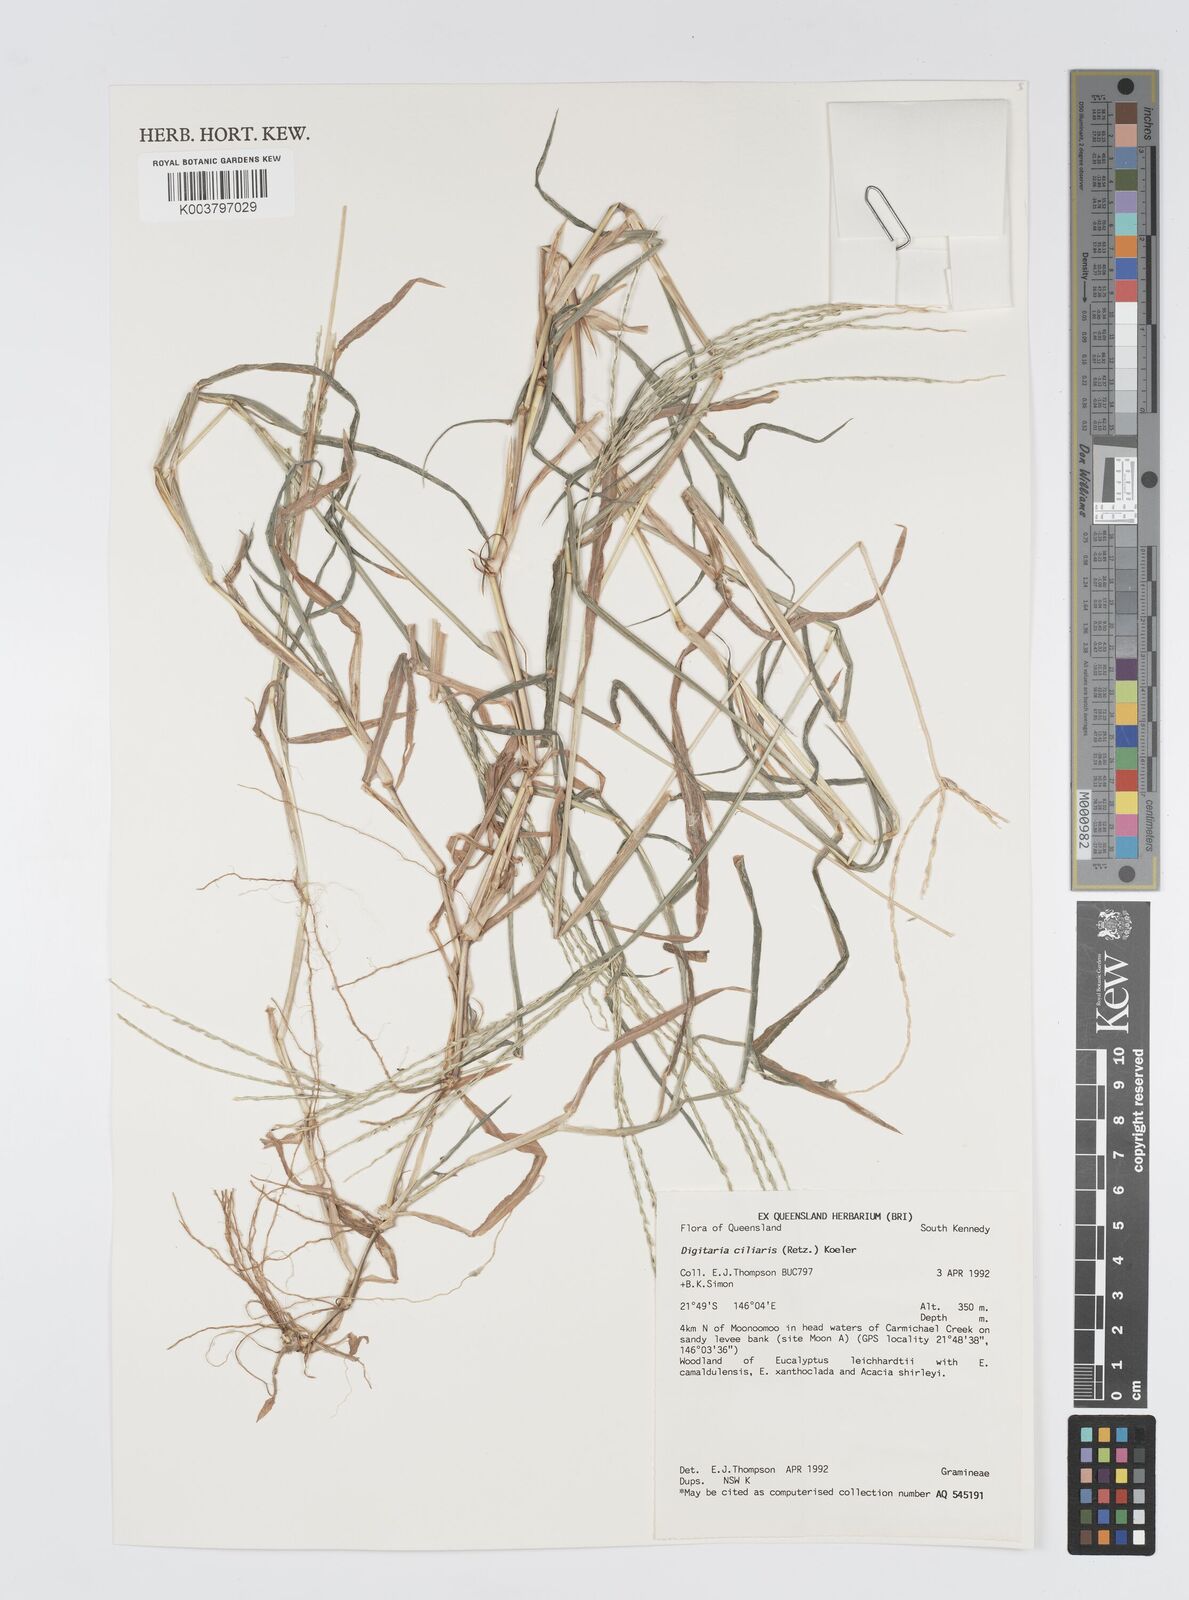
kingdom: Plantae
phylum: Tracheophyta
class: Liliopsida
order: Poales
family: Poaceae
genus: Digitaria
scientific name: Digitaria ciliaris
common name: Tropical finger-grass
